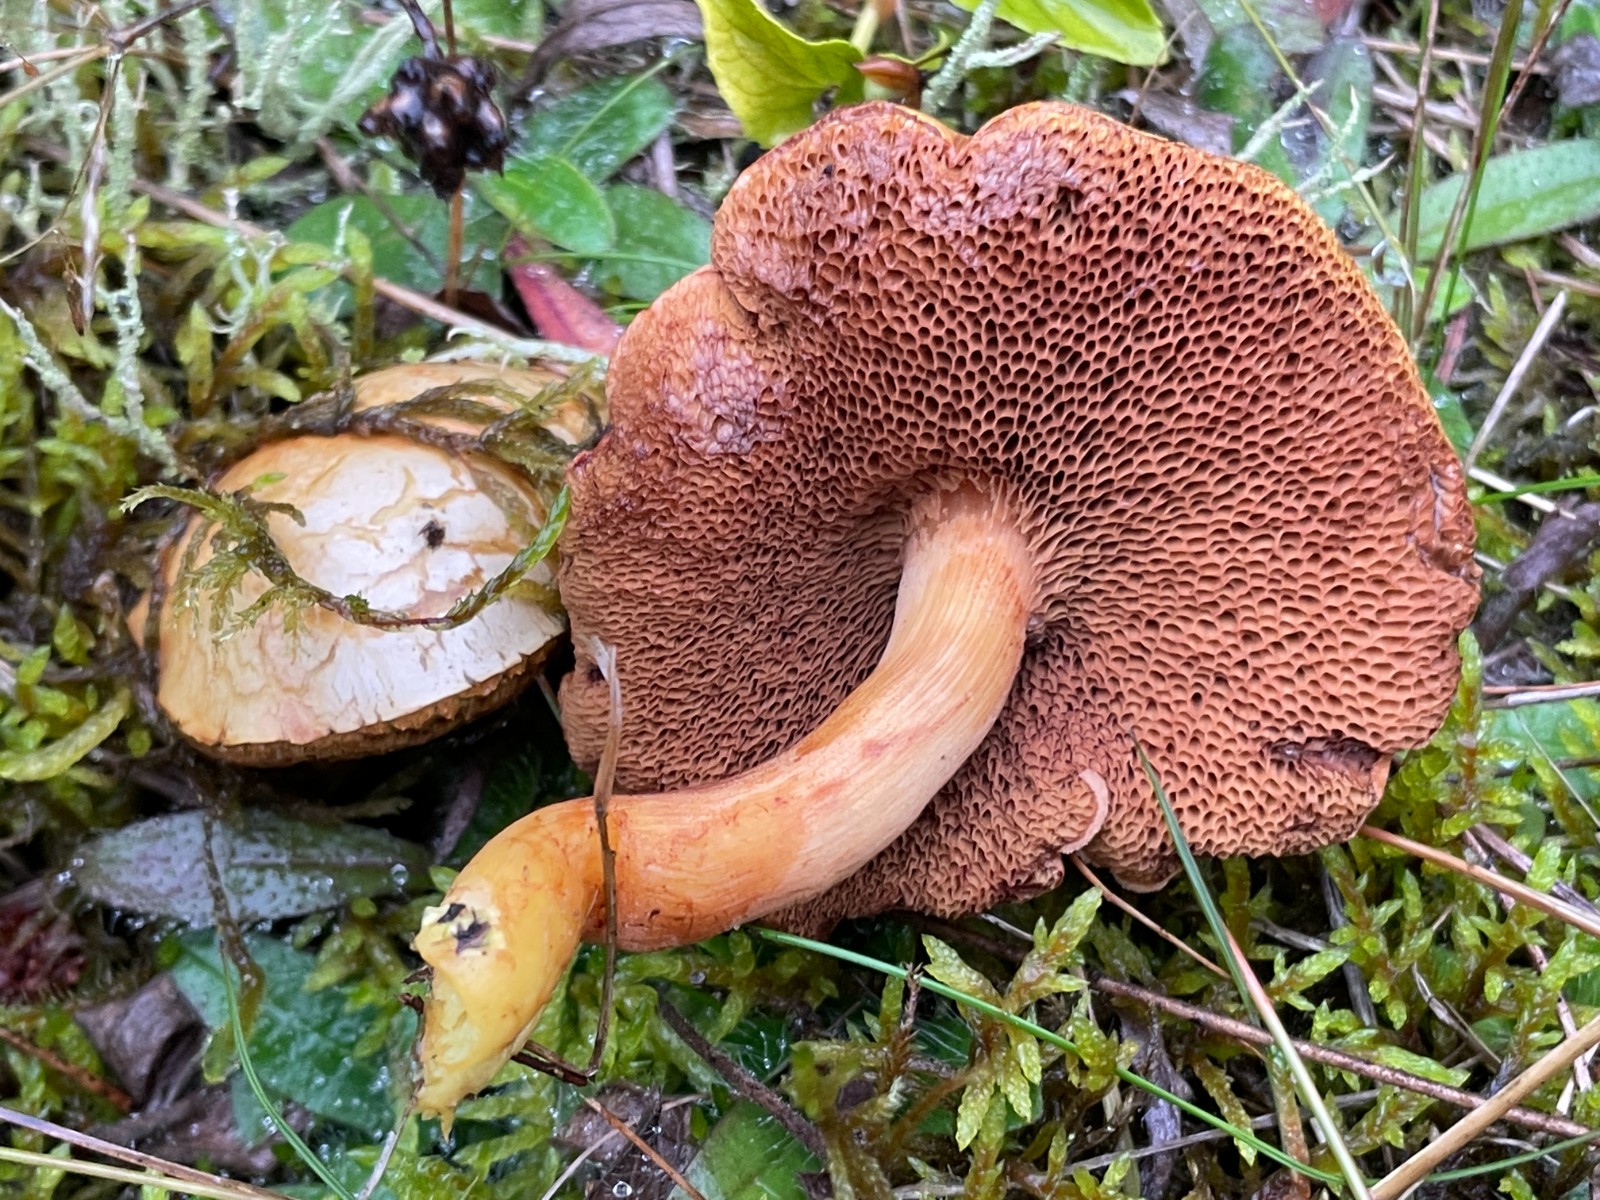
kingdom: Fungi
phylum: Basidiomycota
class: Agaricomycetes
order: Boletales
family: Boletaceae
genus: Chalciporus
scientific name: Chalciporus piperatus
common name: peberrørhat
